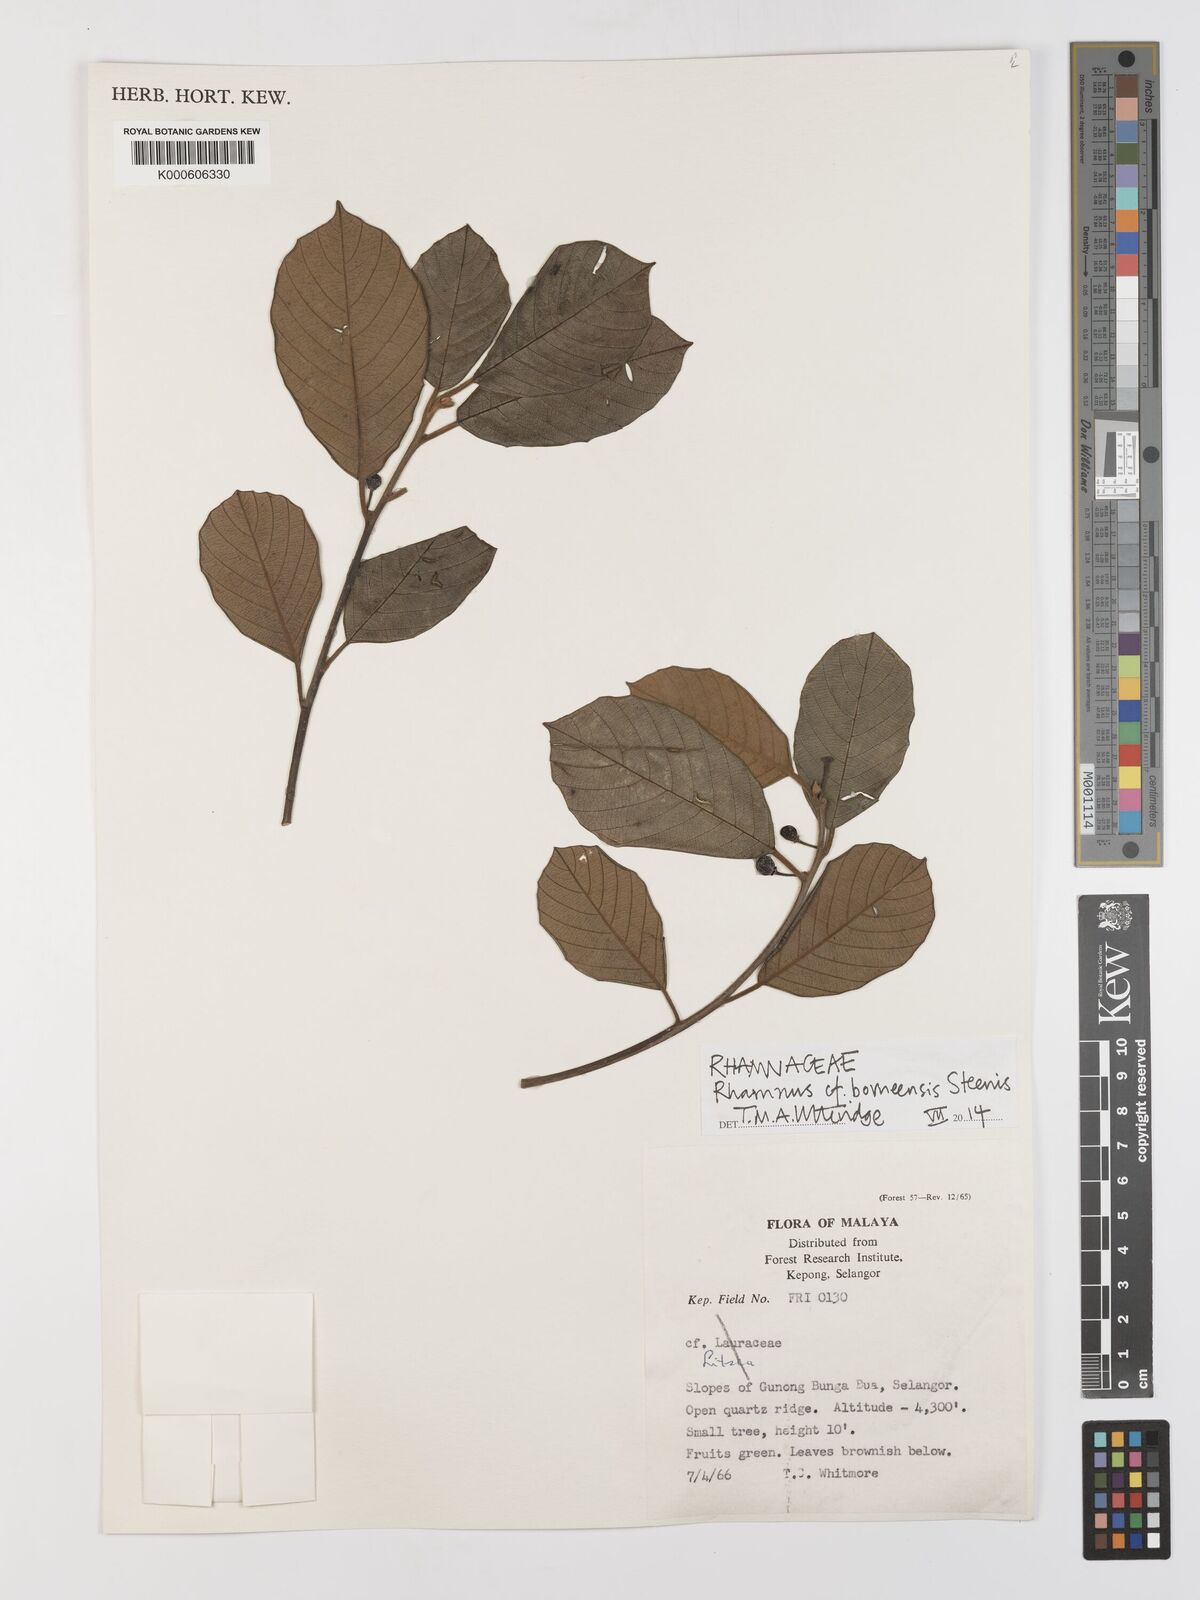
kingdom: Plantae
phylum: Tracheophyta
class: Magnoliopsida
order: Rosales
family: Rhamnaceae
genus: Frangula
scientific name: Frangula borneensis
